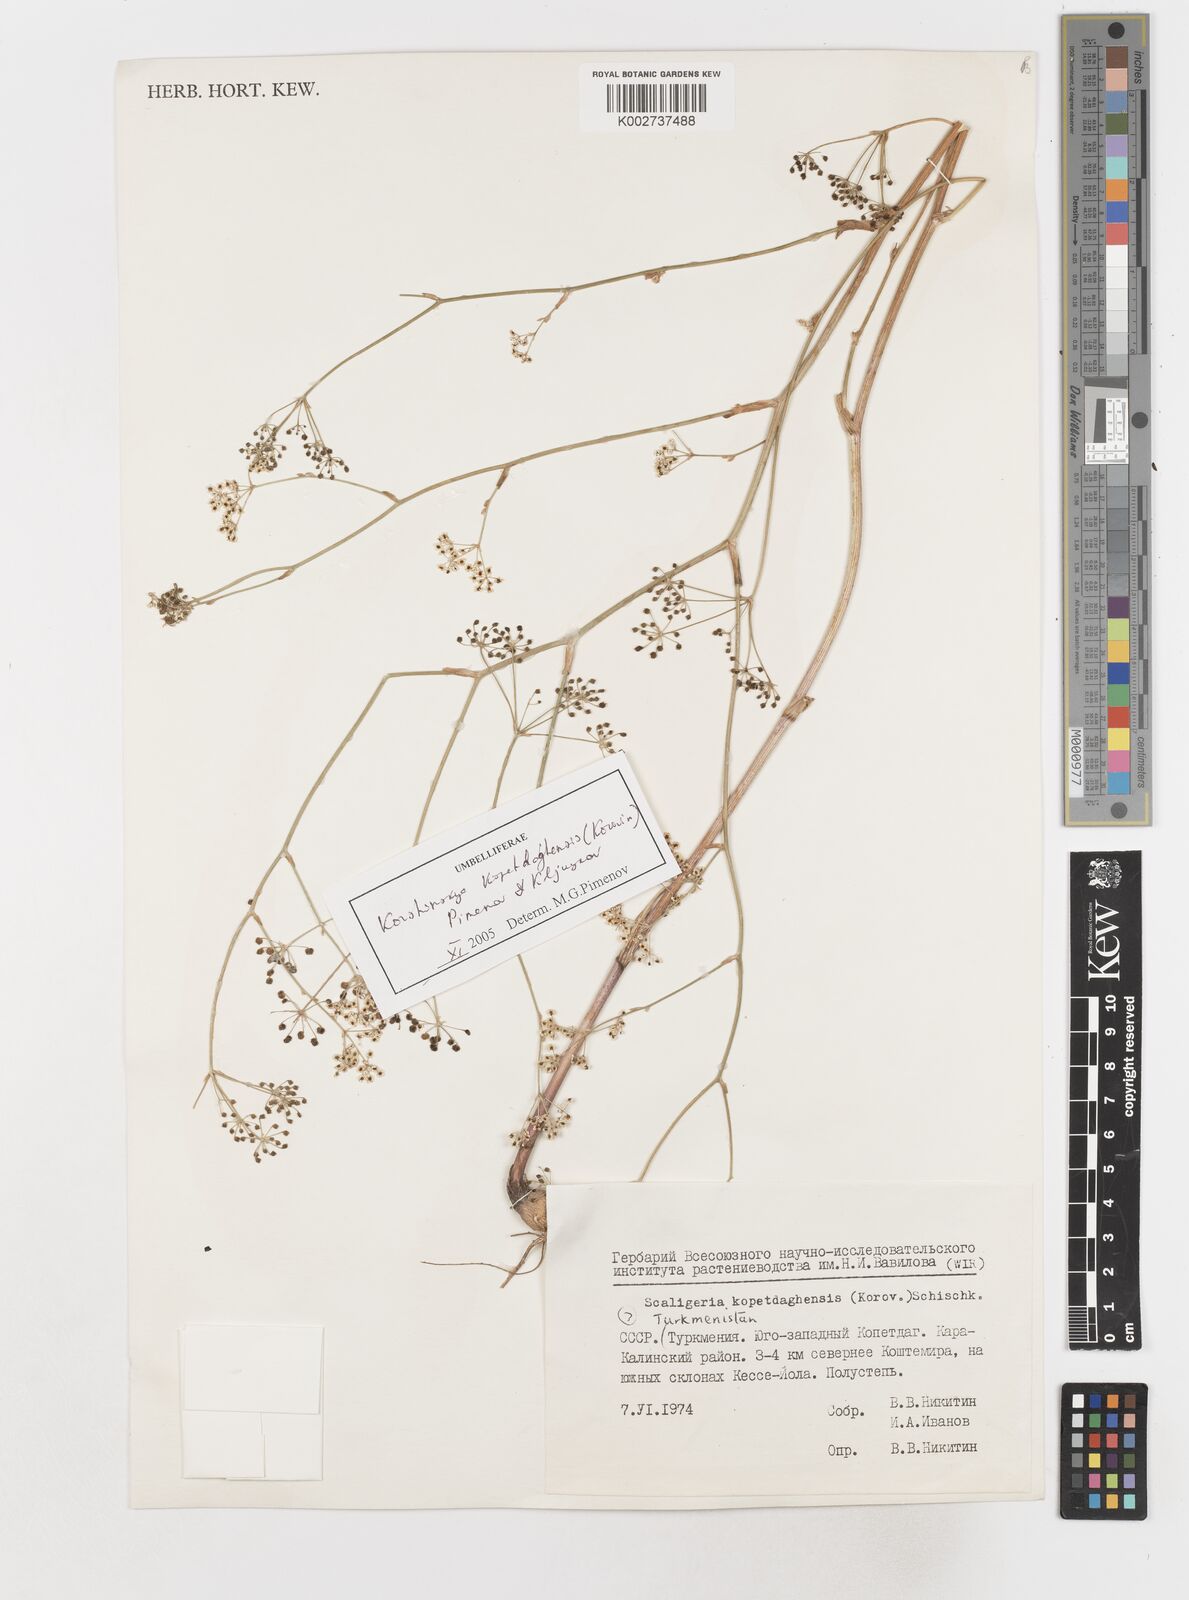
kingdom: Plantae
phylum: Tracheophyta
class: Magnoliopsida
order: Apiales
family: Apiaceae
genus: Pseudotrachydium
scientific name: Pseudotrachydium kopetdagense
